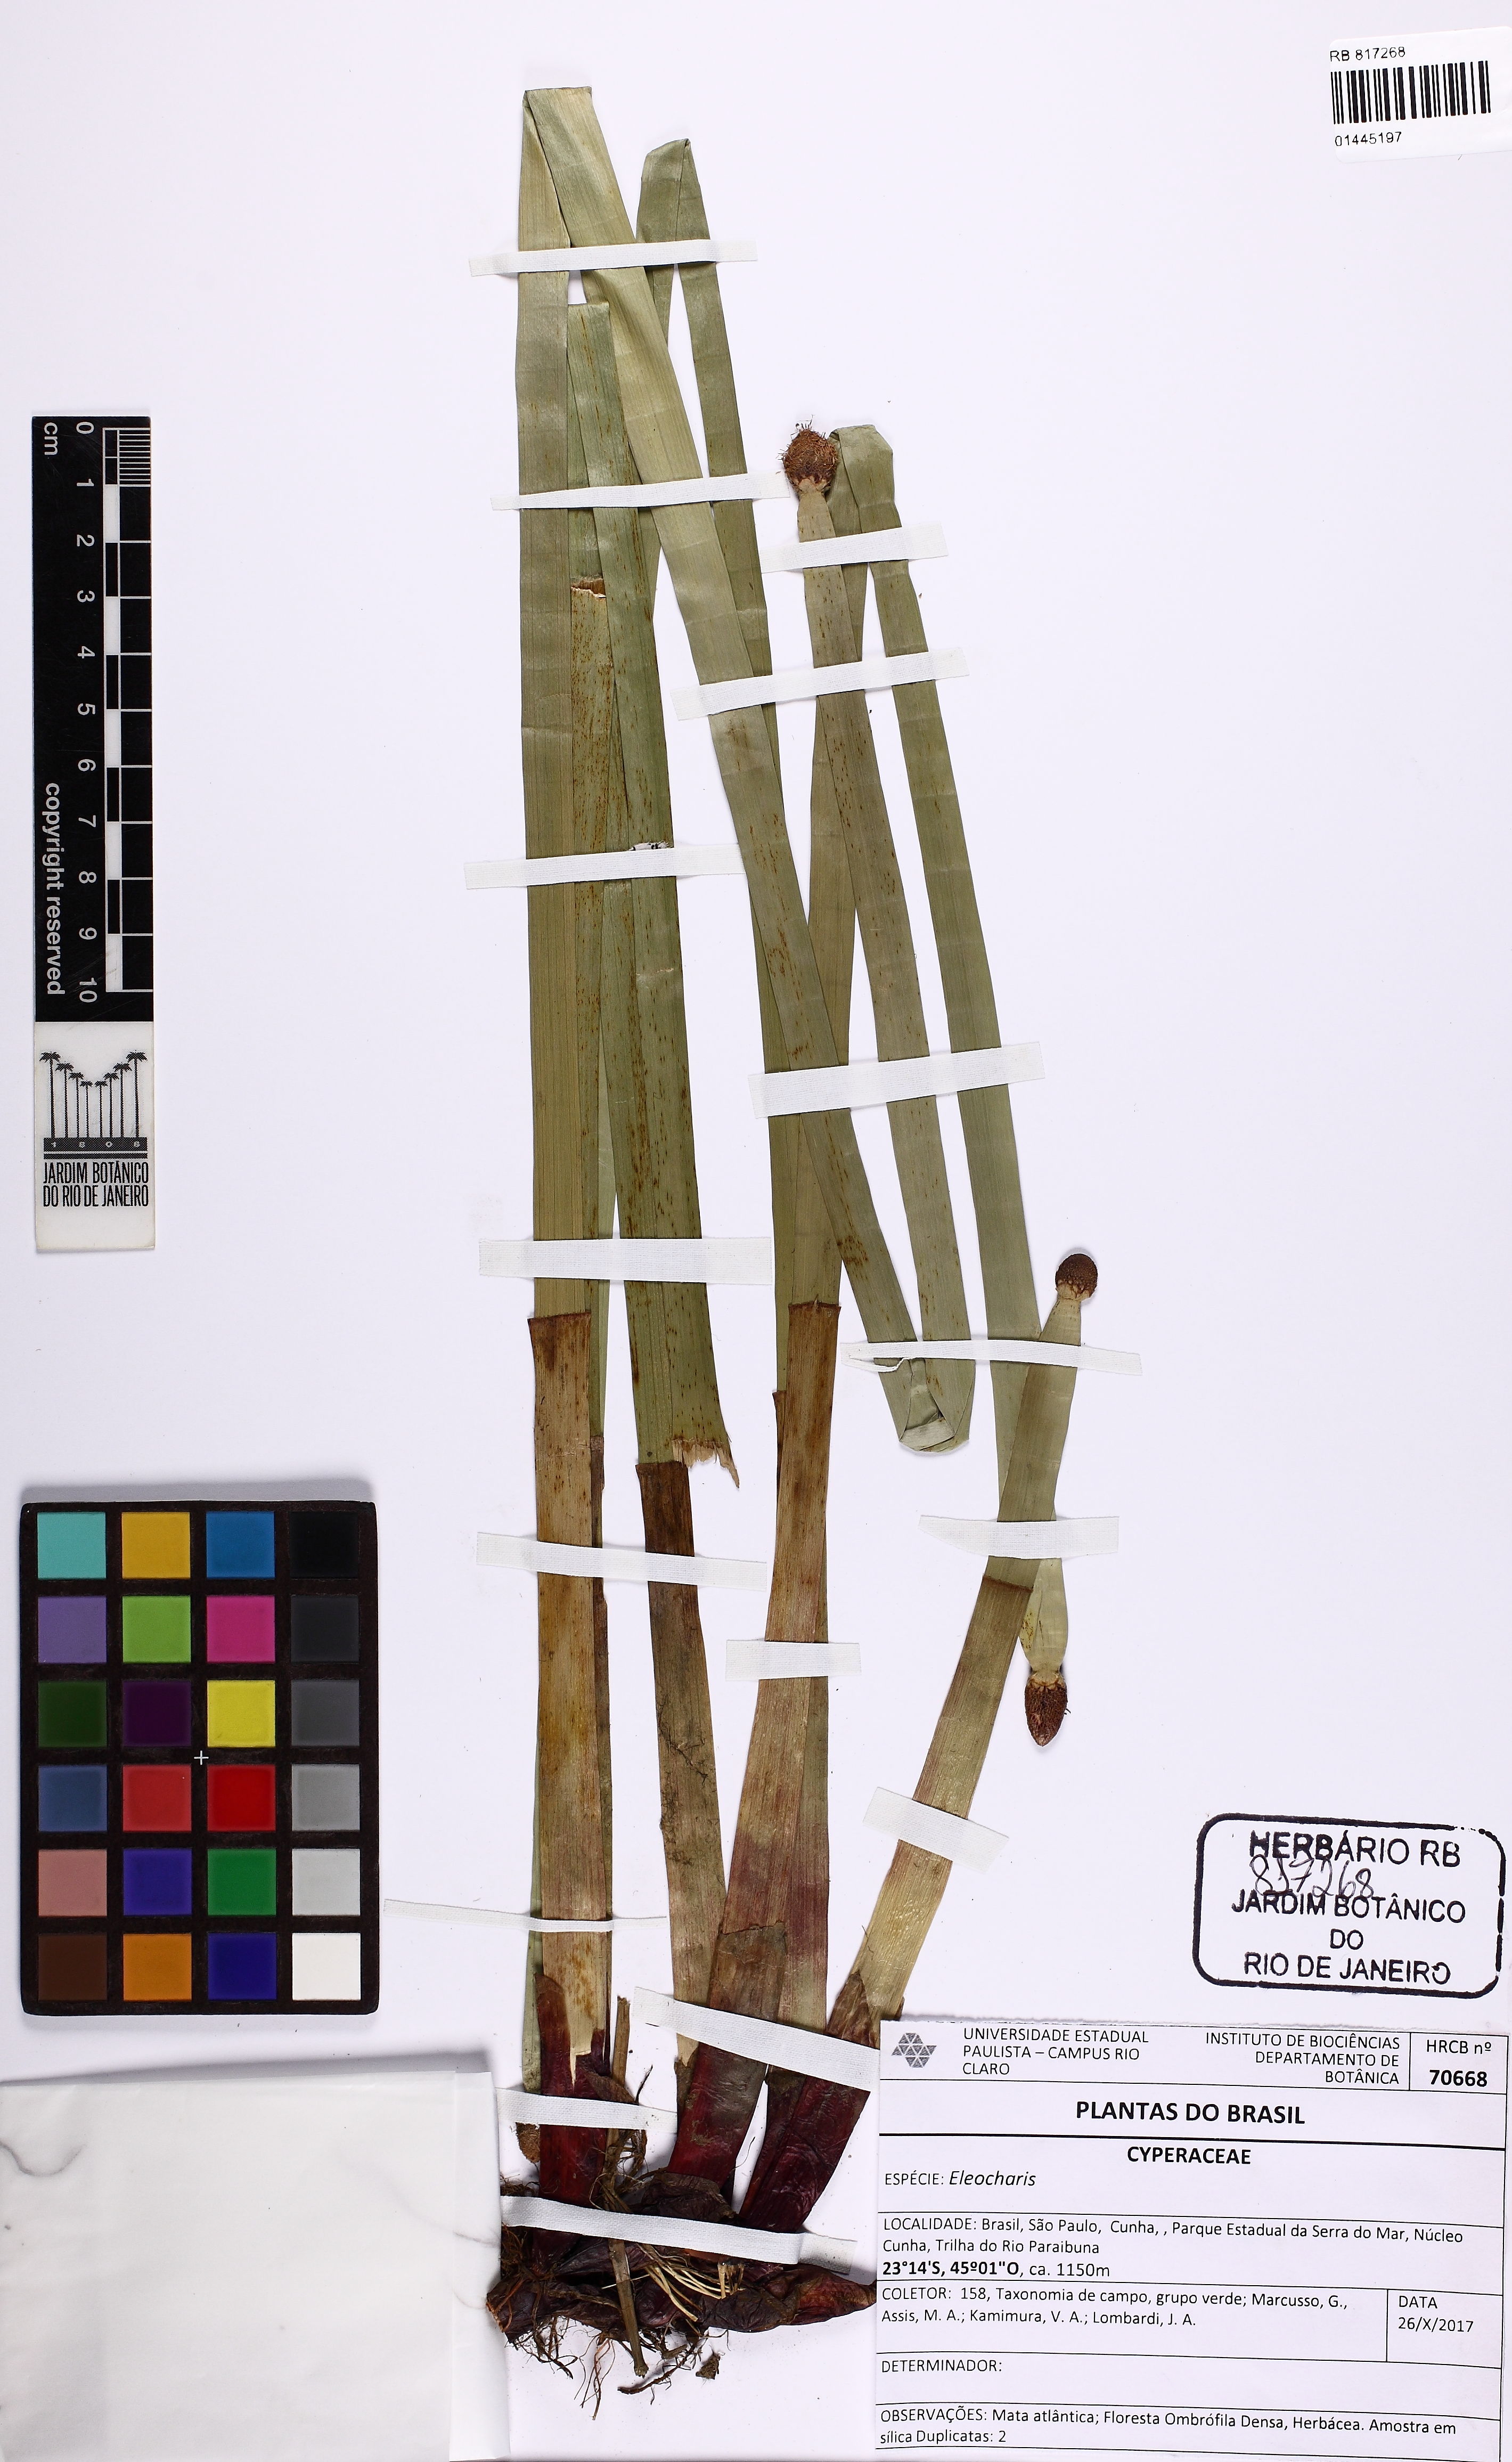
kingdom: Plantae
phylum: Tracheophyta
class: Liliopsida
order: Poales
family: Cyperaceae
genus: Eleocharis
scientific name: Eleocharis elegans
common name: Elegant spike-rush
